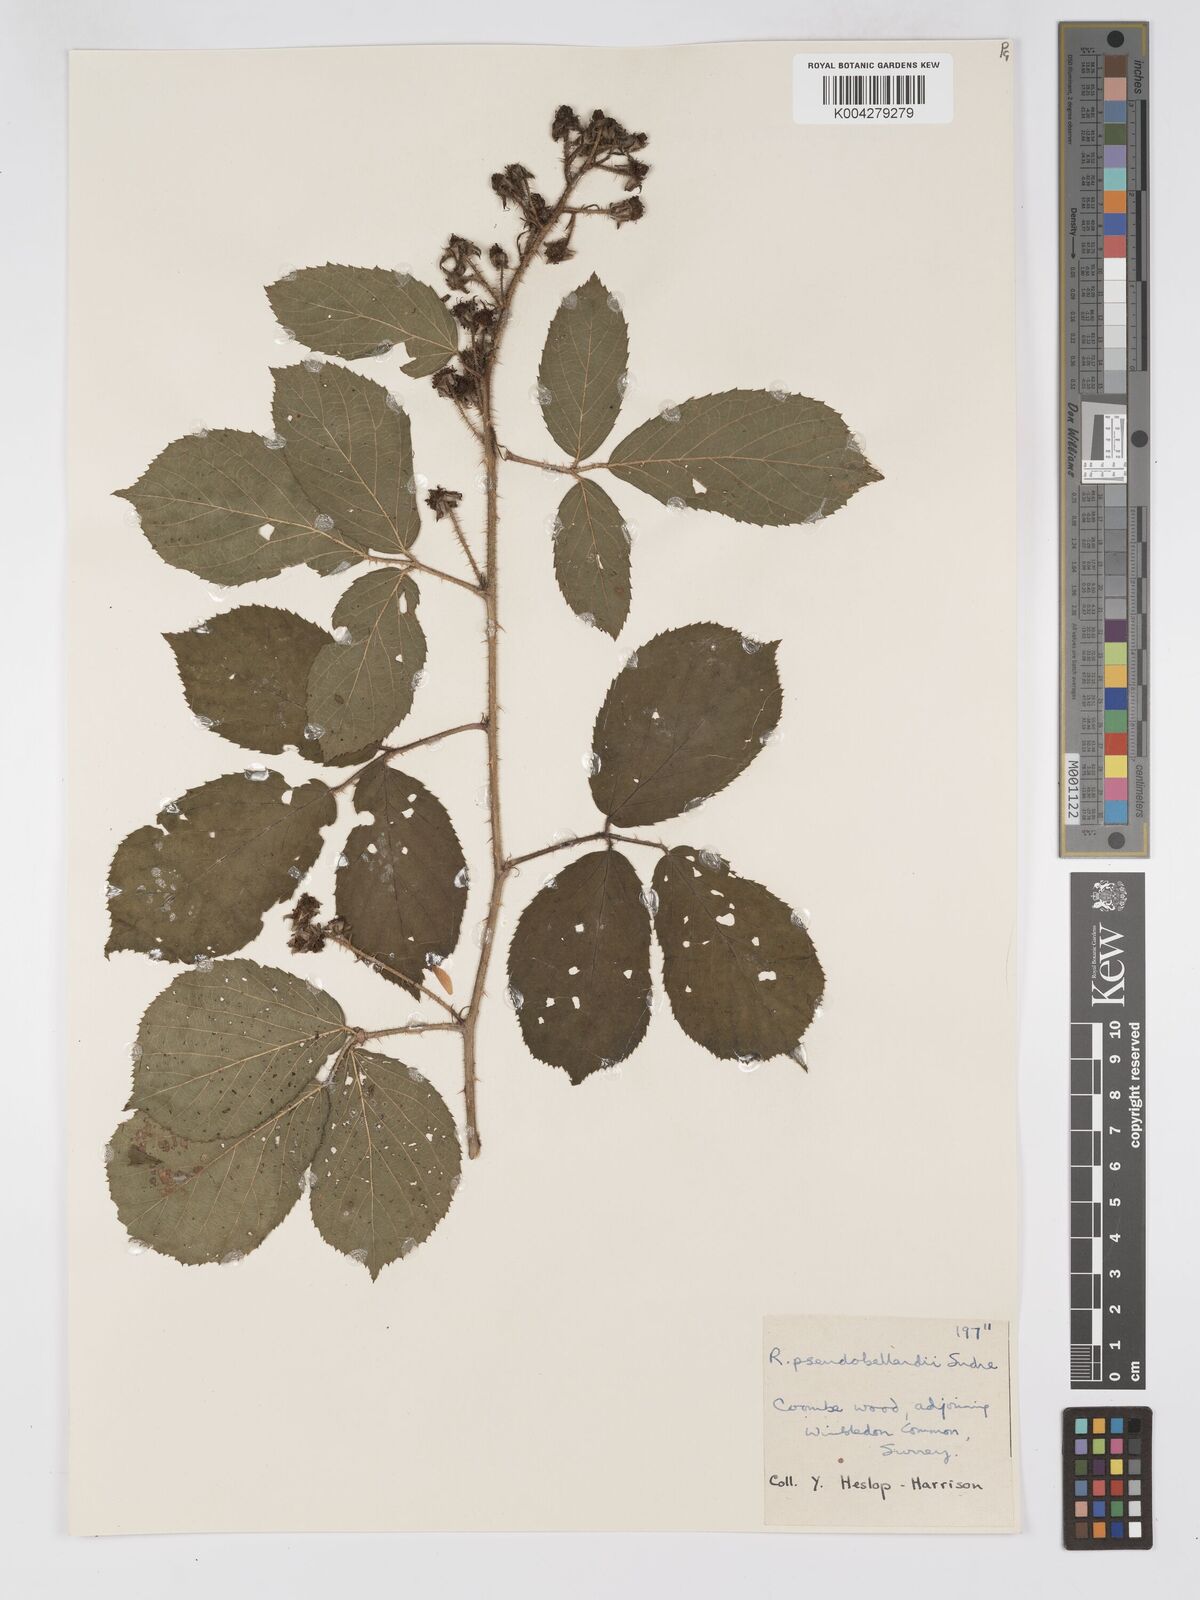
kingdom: Plantae
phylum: Tracheophyta
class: Magnoliopsida
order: Rosales
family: Rosaceae
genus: Rubus
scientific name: Rubus
